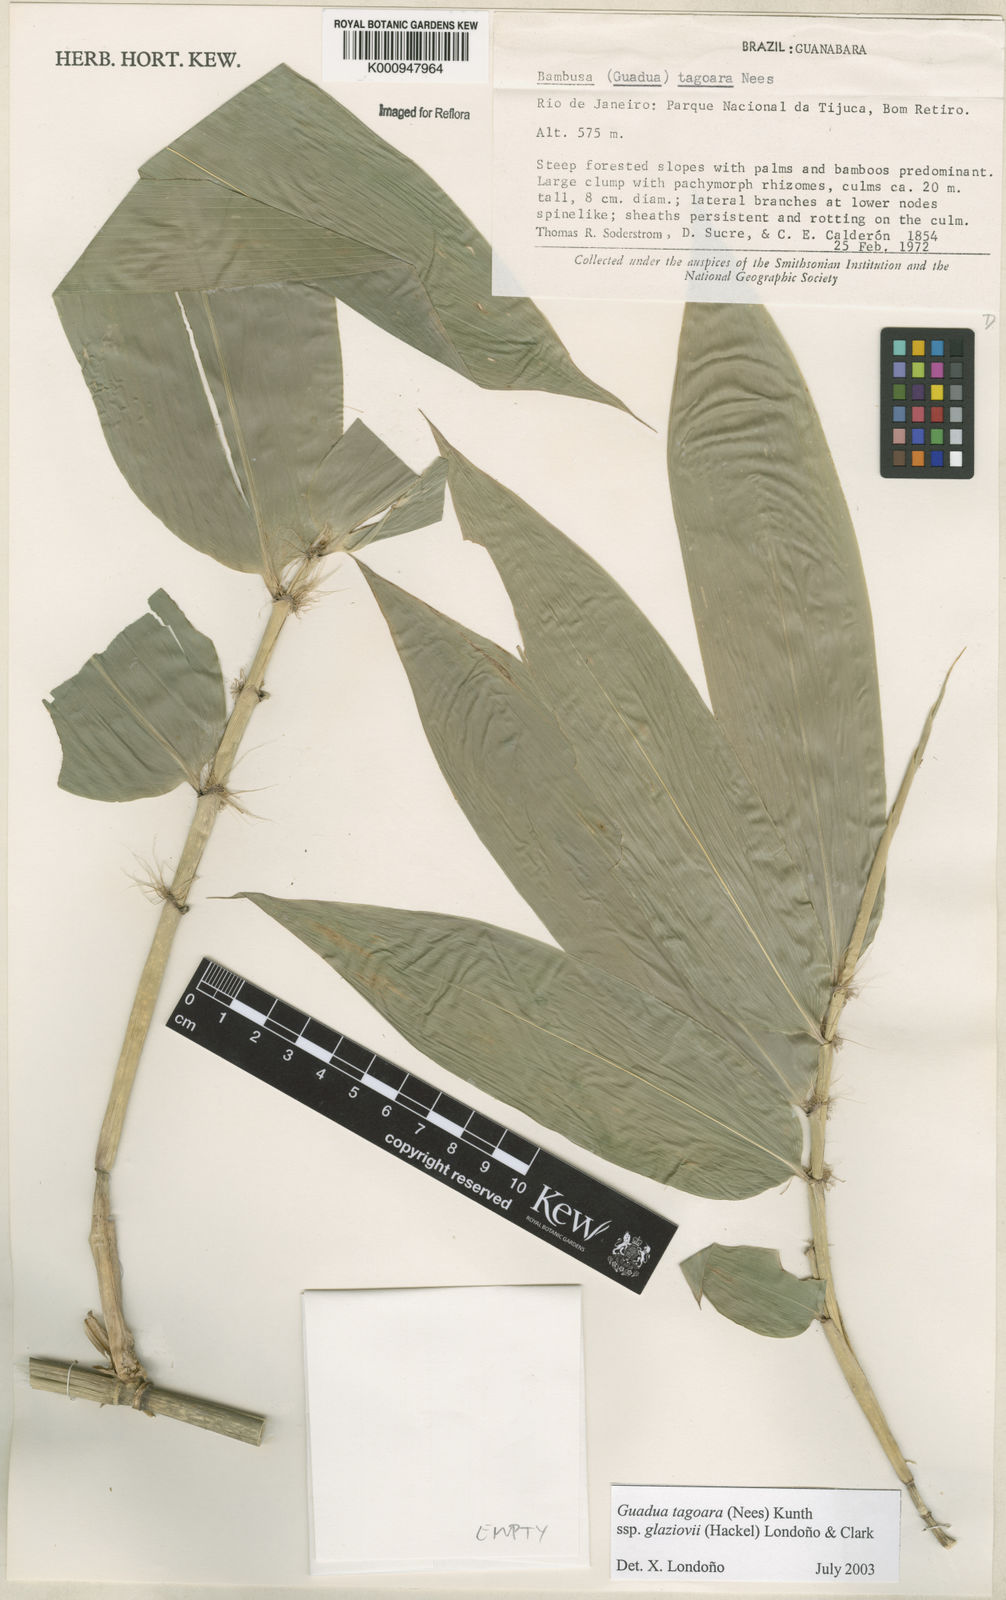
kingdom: Plantae
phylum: Tracheophyta
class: Liliopsida
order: Poales
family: Poaceae
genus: Guadua
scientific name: Guadua tagoara
